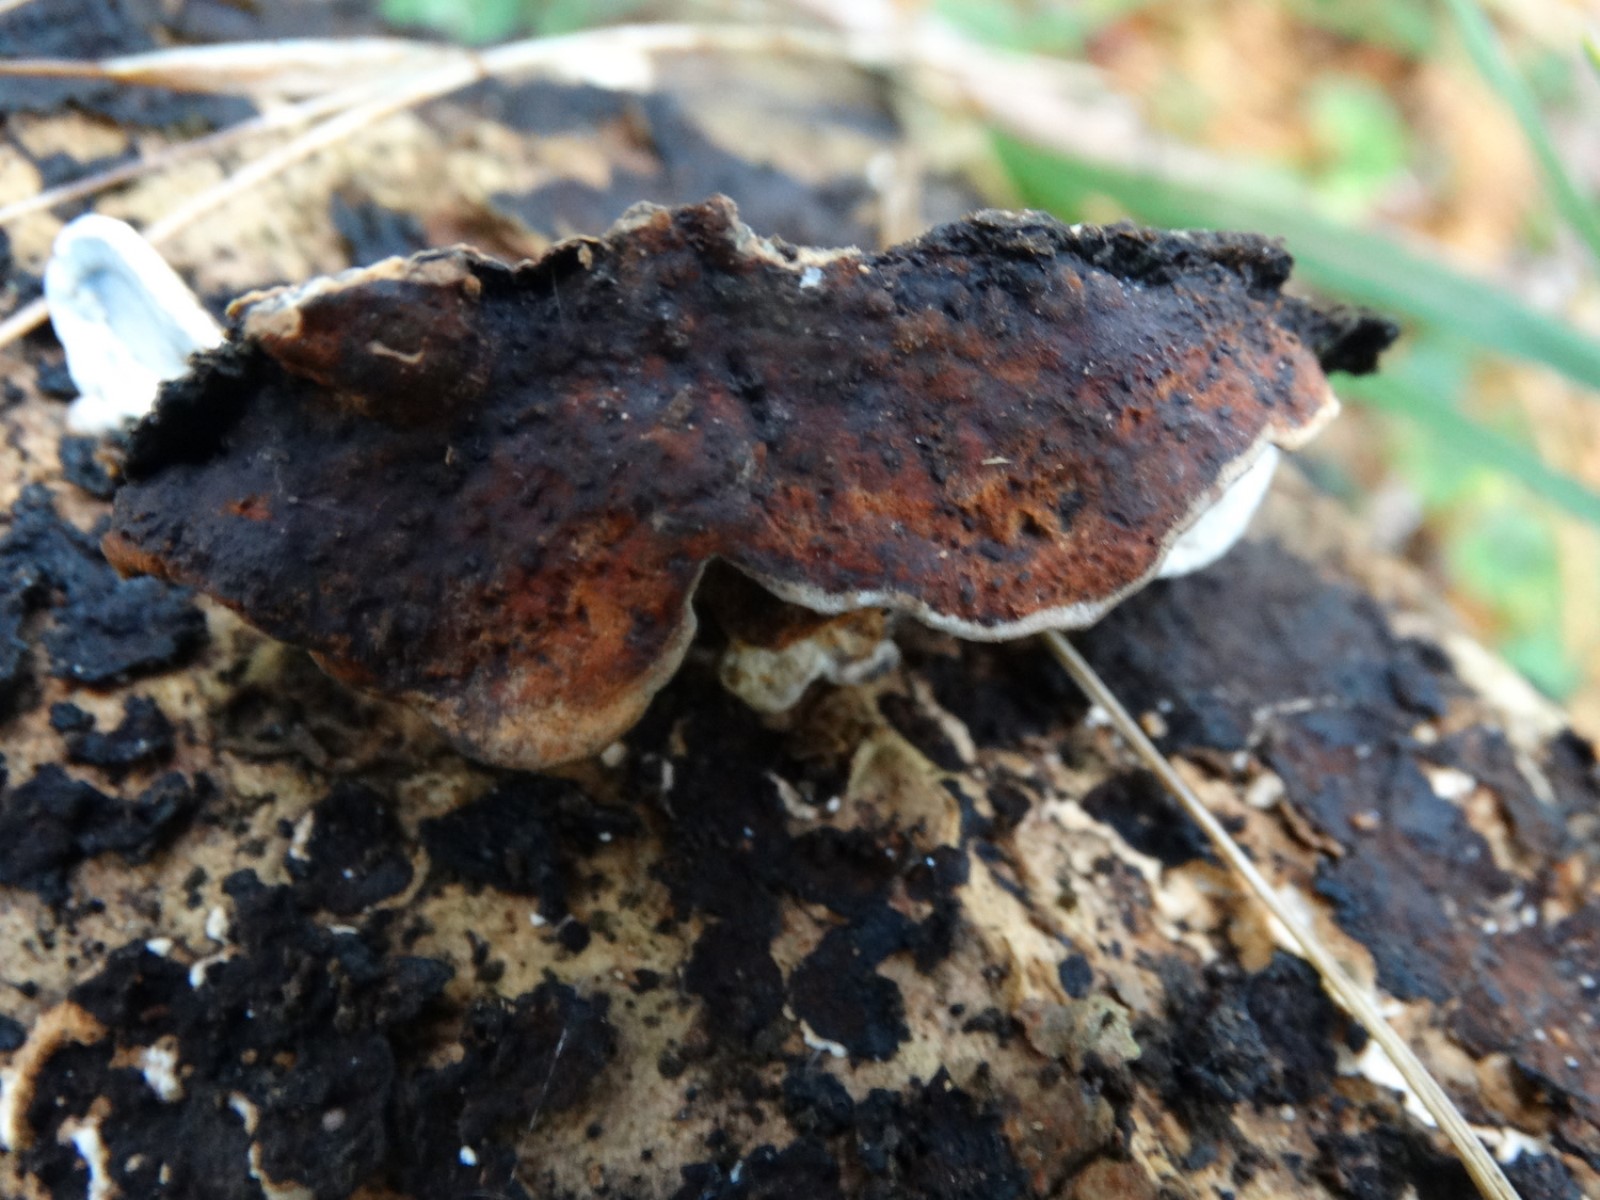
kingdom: Fungi
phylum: Basidiomycota
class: Agaricomycetes
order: Polyporales
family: Incrustoporiaceae
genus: Skeletocutis
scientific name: Skeletocutis nemoralis
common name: stor krystalporesvamp
